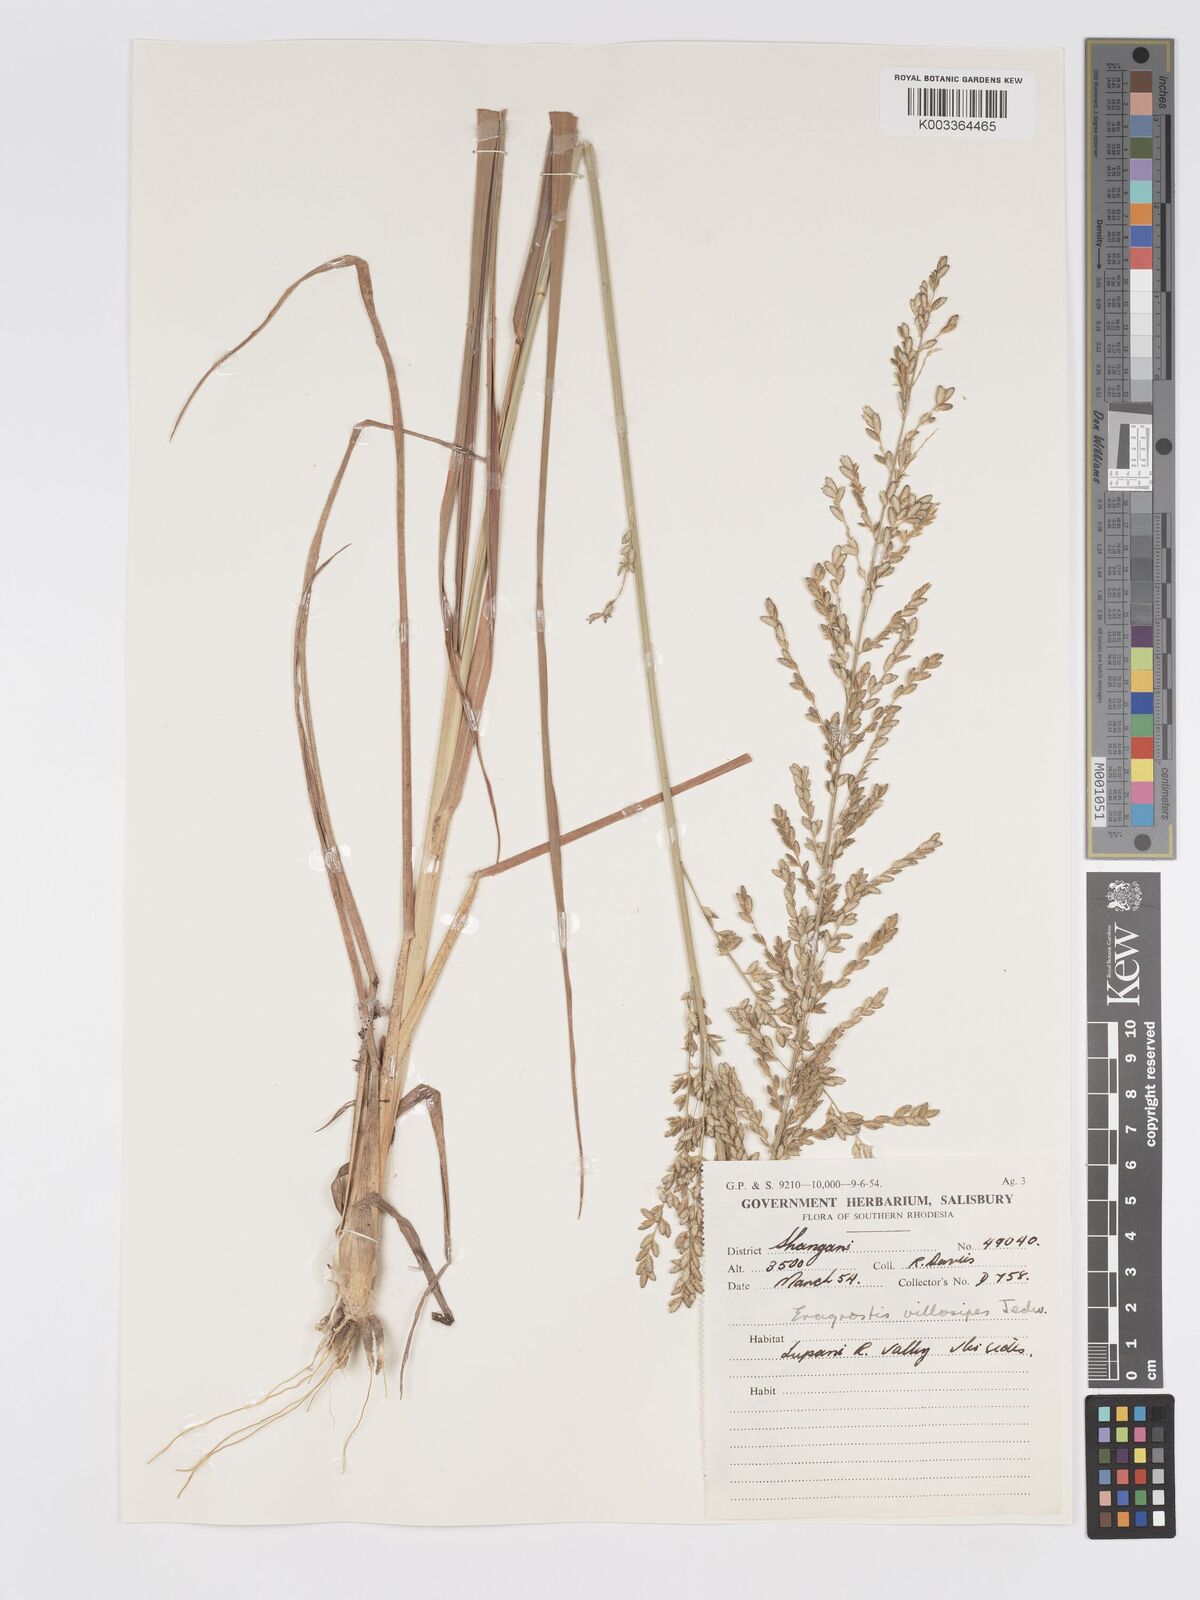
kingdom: Plantae
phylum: Tracheophyta
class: Liliopsida
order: Poales
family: Poaceae
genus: Eragrostis
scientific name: Eragrostis sclerantha
